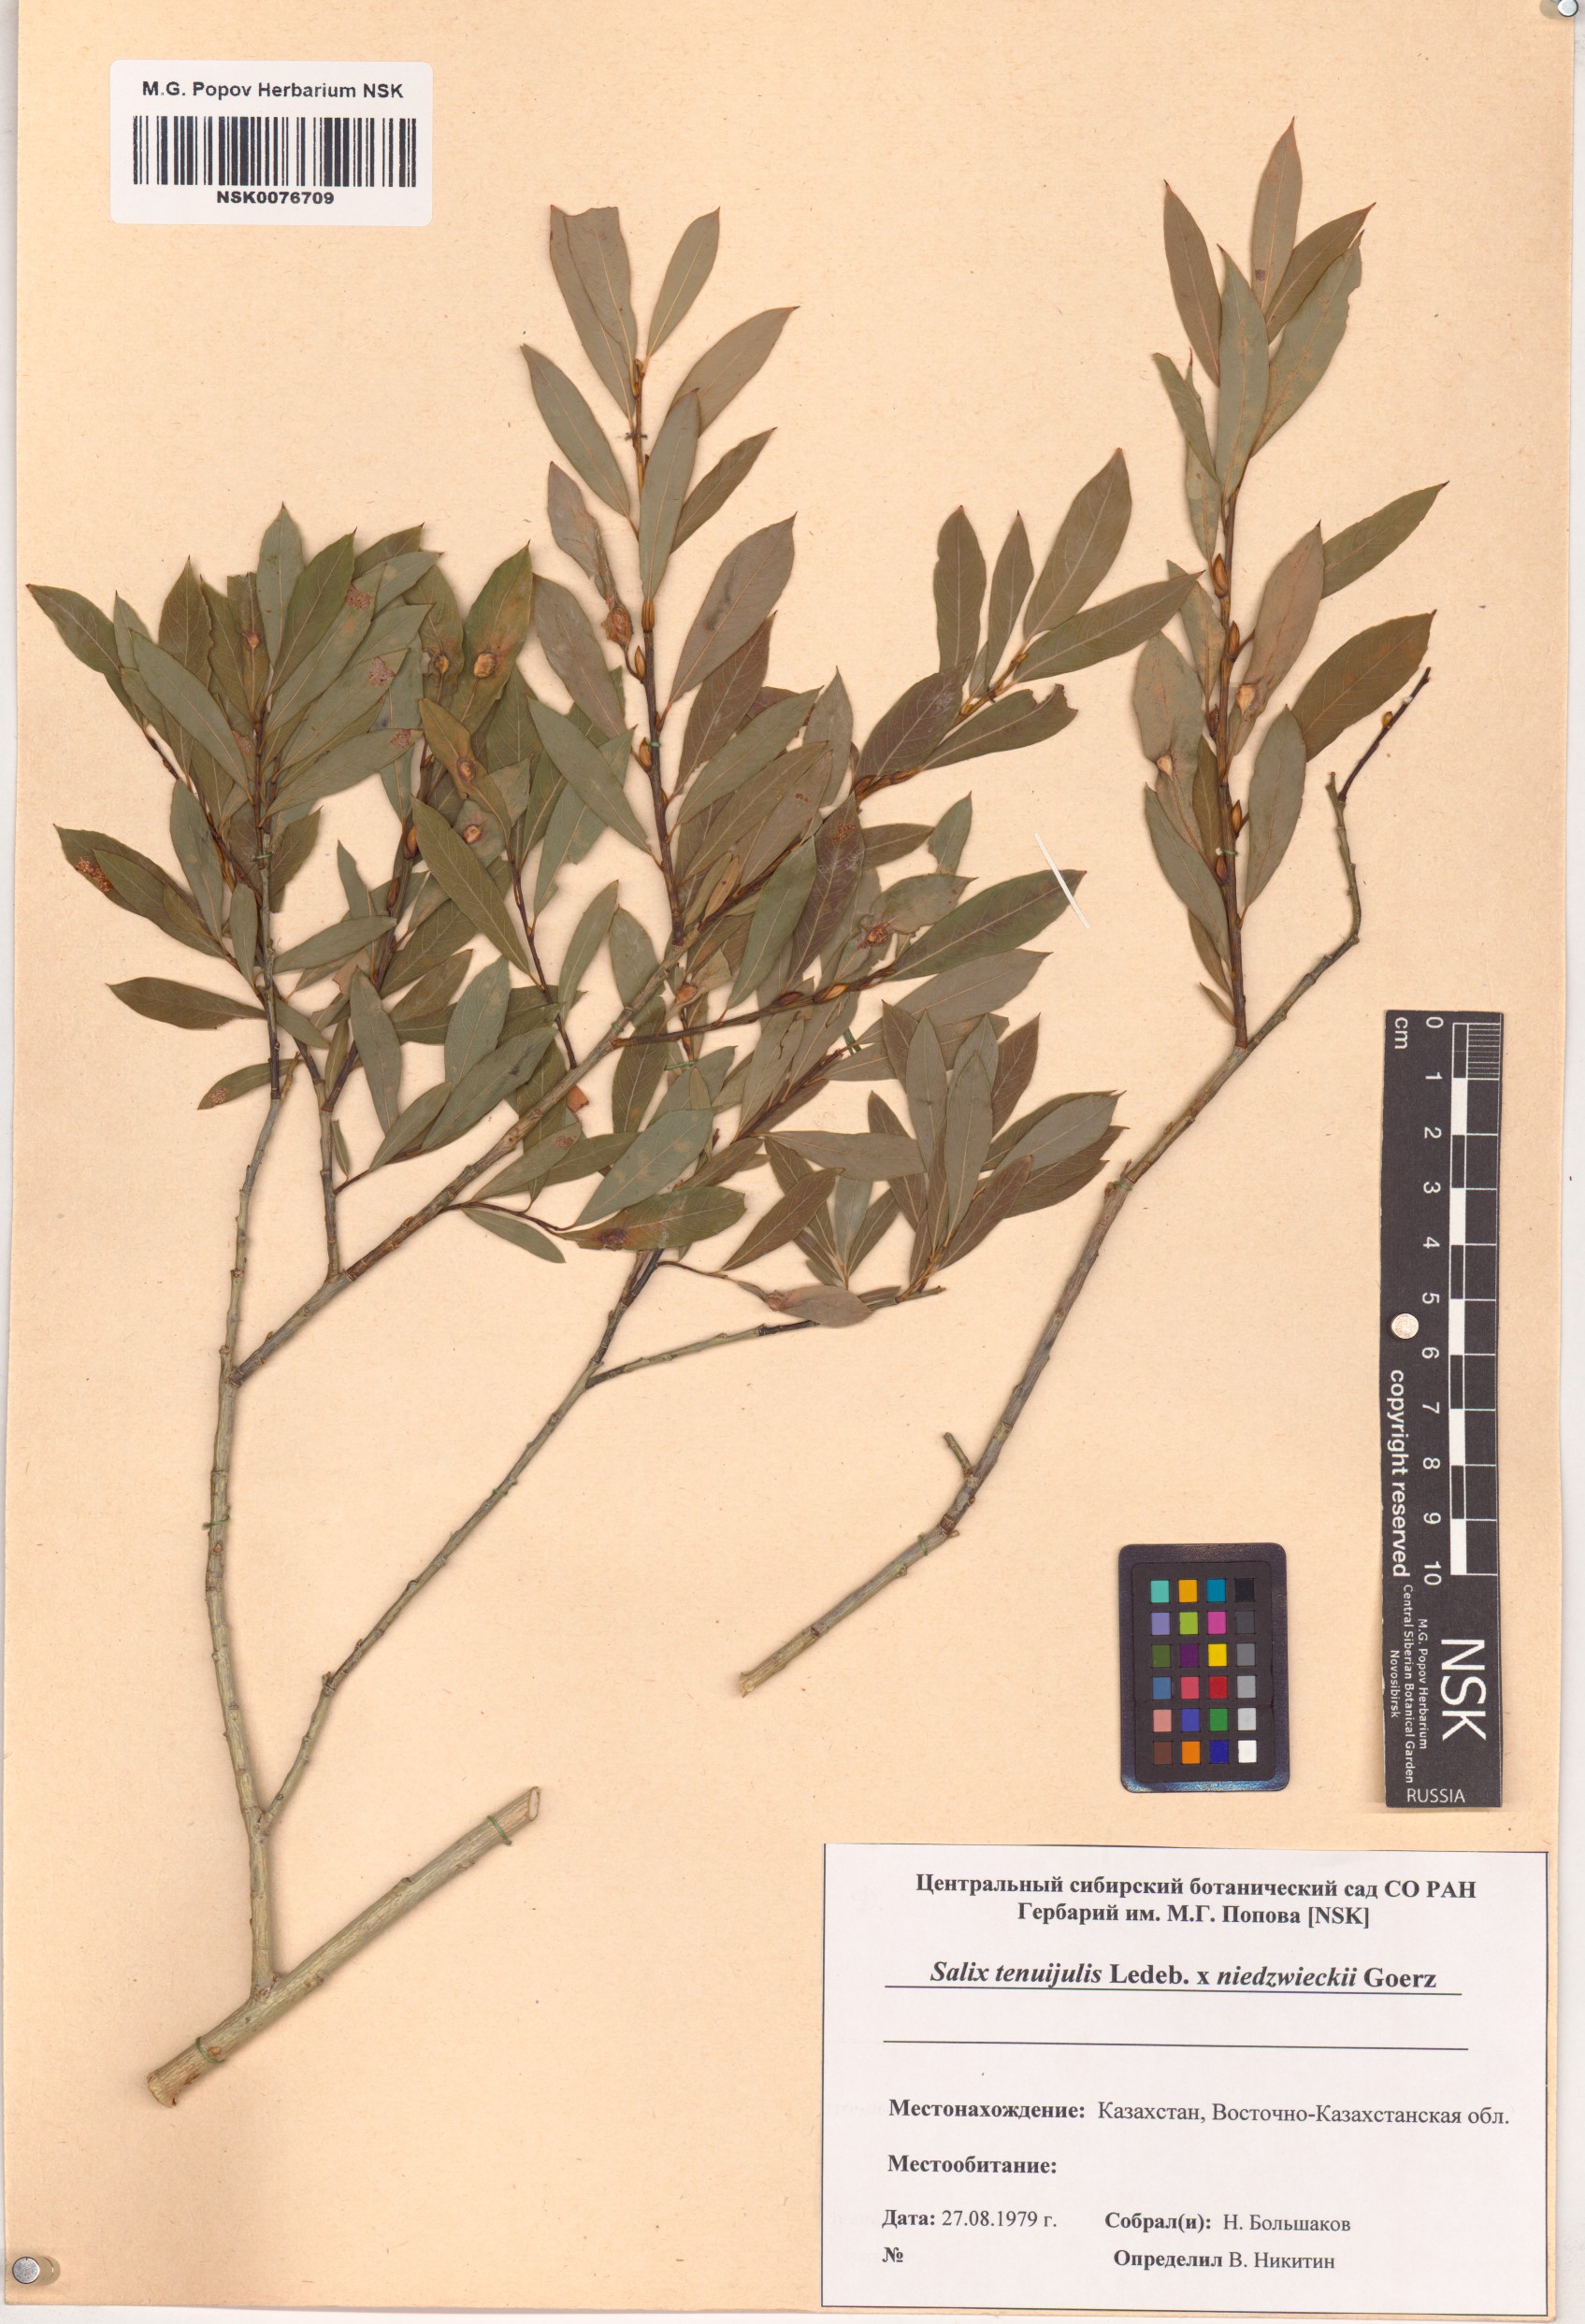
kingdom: Plantae
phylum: Tracheophyta
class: Magnoliopsida
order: Malpighiales
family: Salicaceae
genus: Salix
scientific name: Salix
